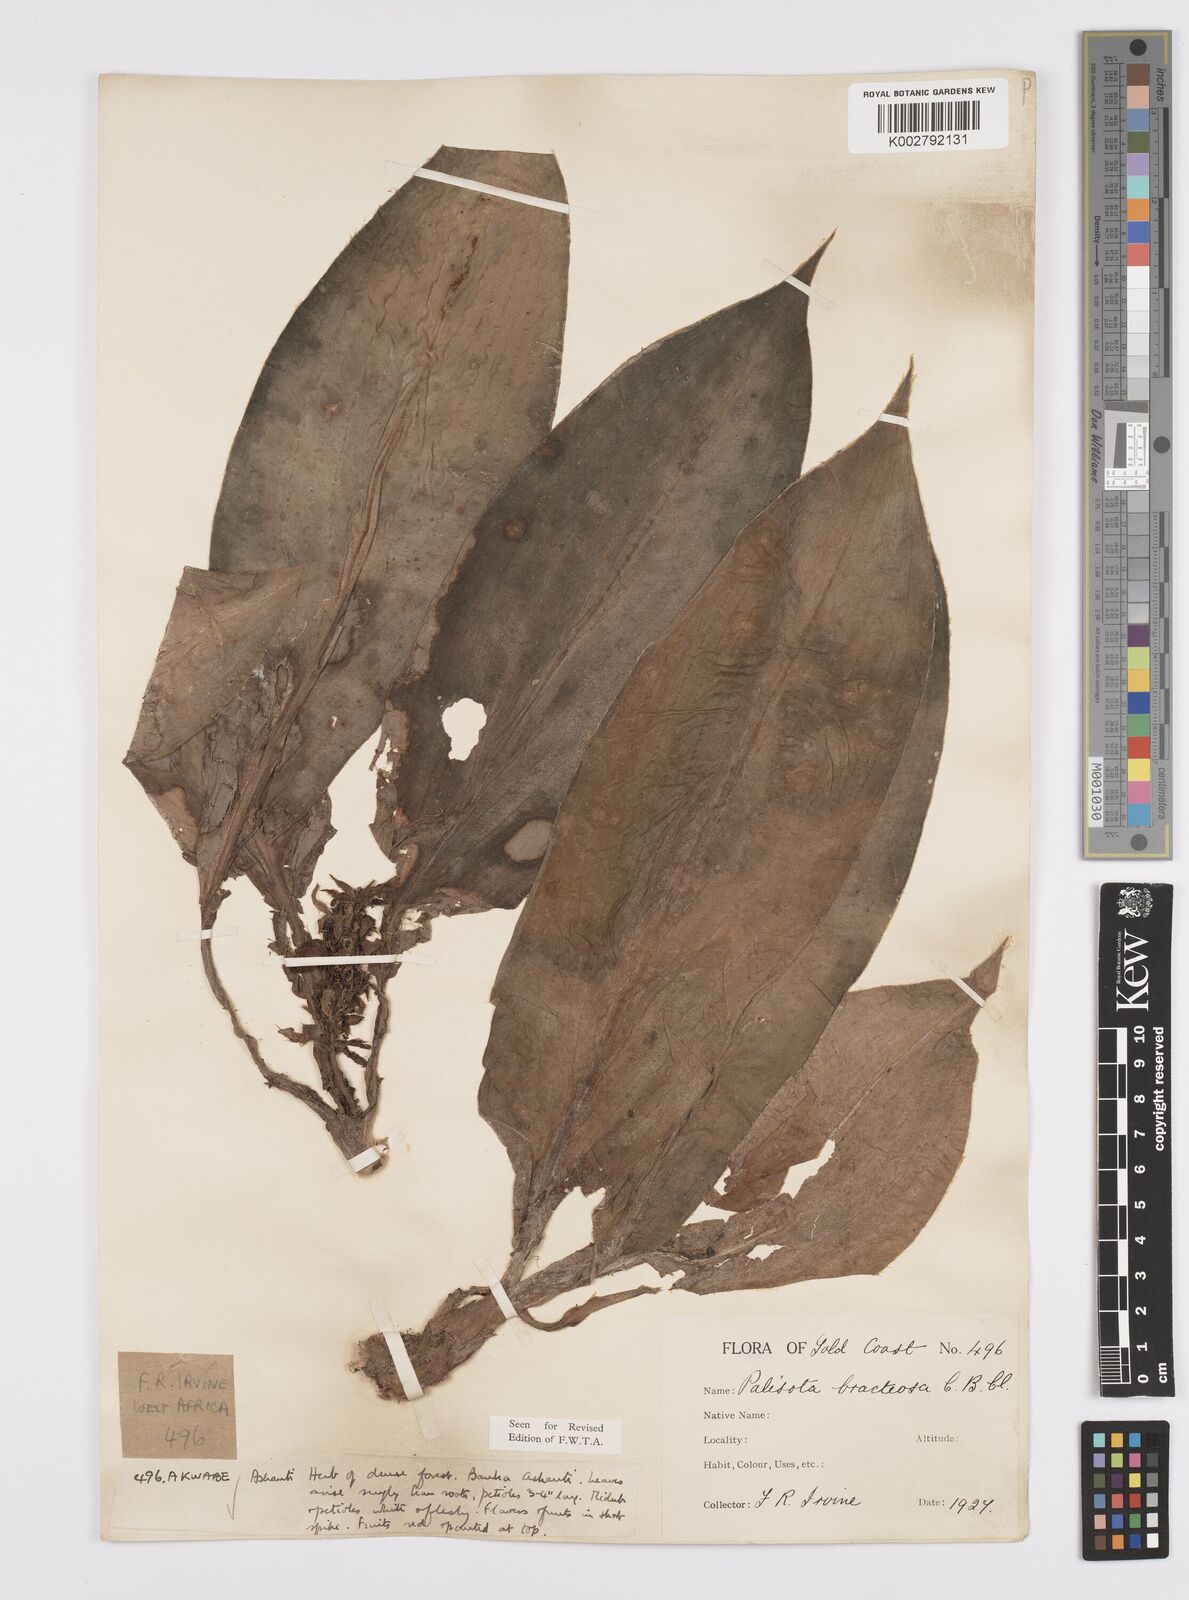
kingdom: Plantae
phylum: Tracheophyta
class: Liliopsida
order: Commelinales
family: Commelinaceae
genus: Palisota
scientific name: Palisota bracteosa
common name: Palisota
